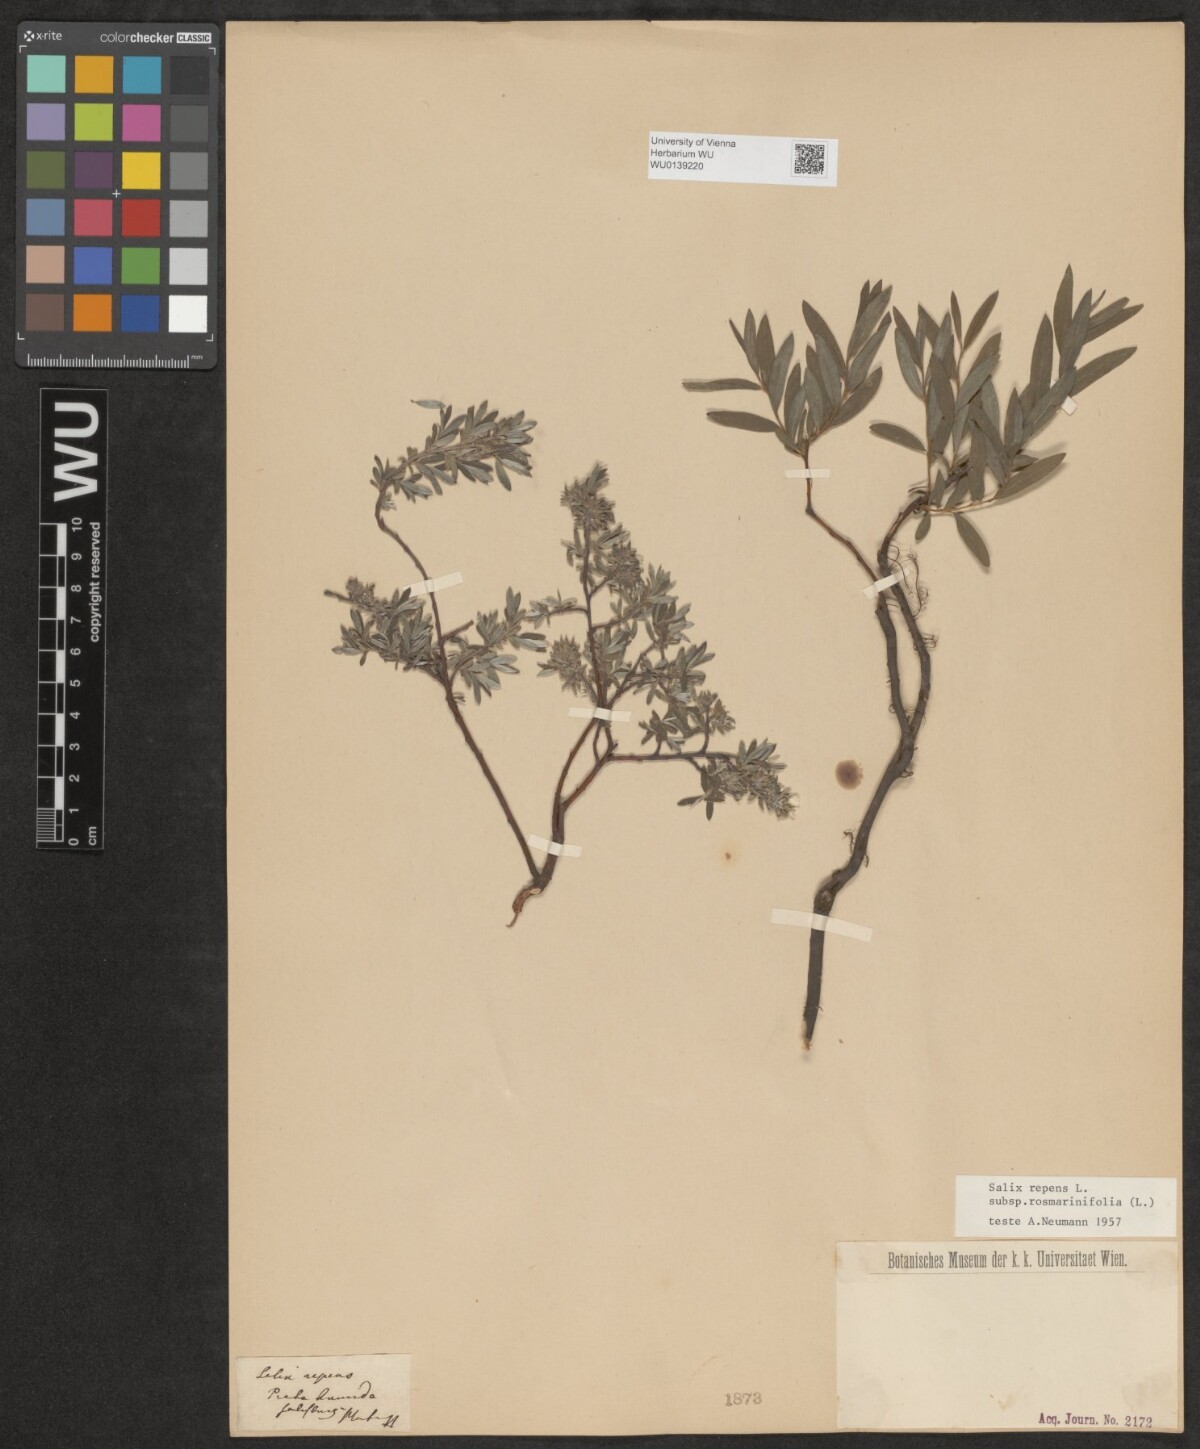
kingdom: Plantae
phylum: Tracheophyta
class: Magnoliopsida
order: Malpighiales
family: Salicaceae
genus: Salix
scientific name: Salix repens
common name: Creeping willow
